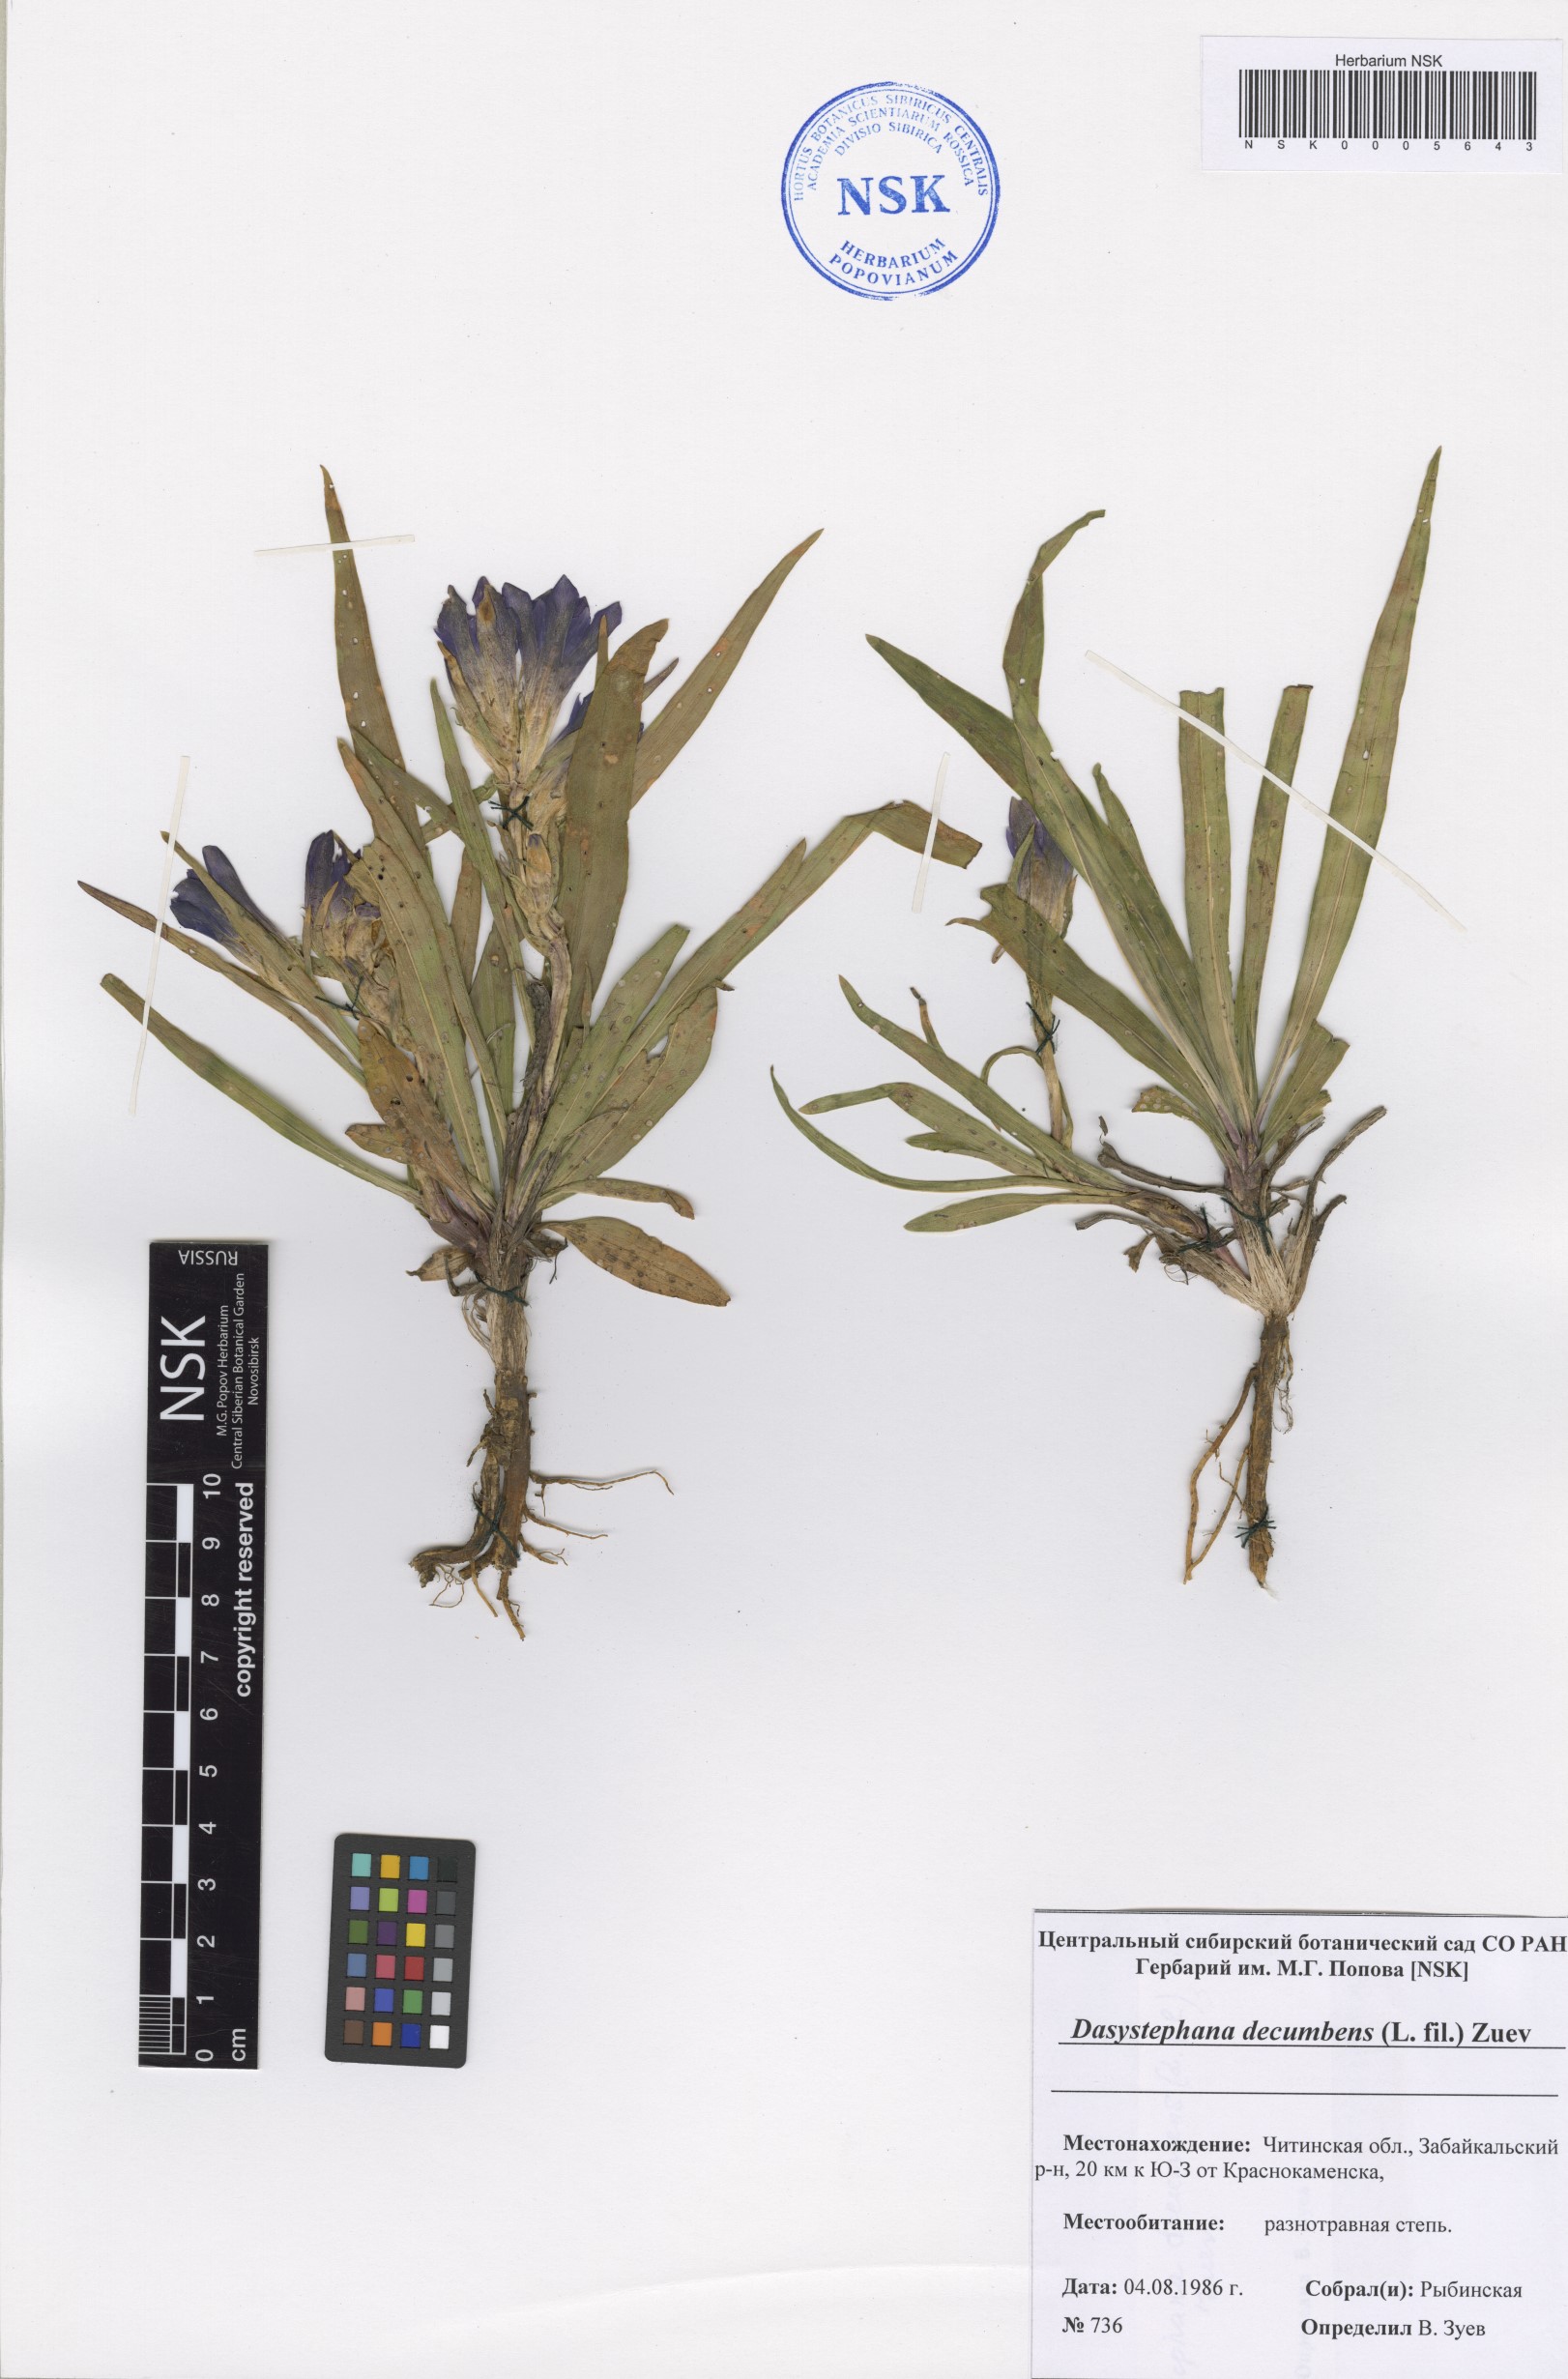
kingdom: Plantae
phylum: Tracheophyta
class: Magnoliopsida
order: Gentianales
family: Gentianaceae
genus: Gentiana
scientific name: Gentiana decumbens
